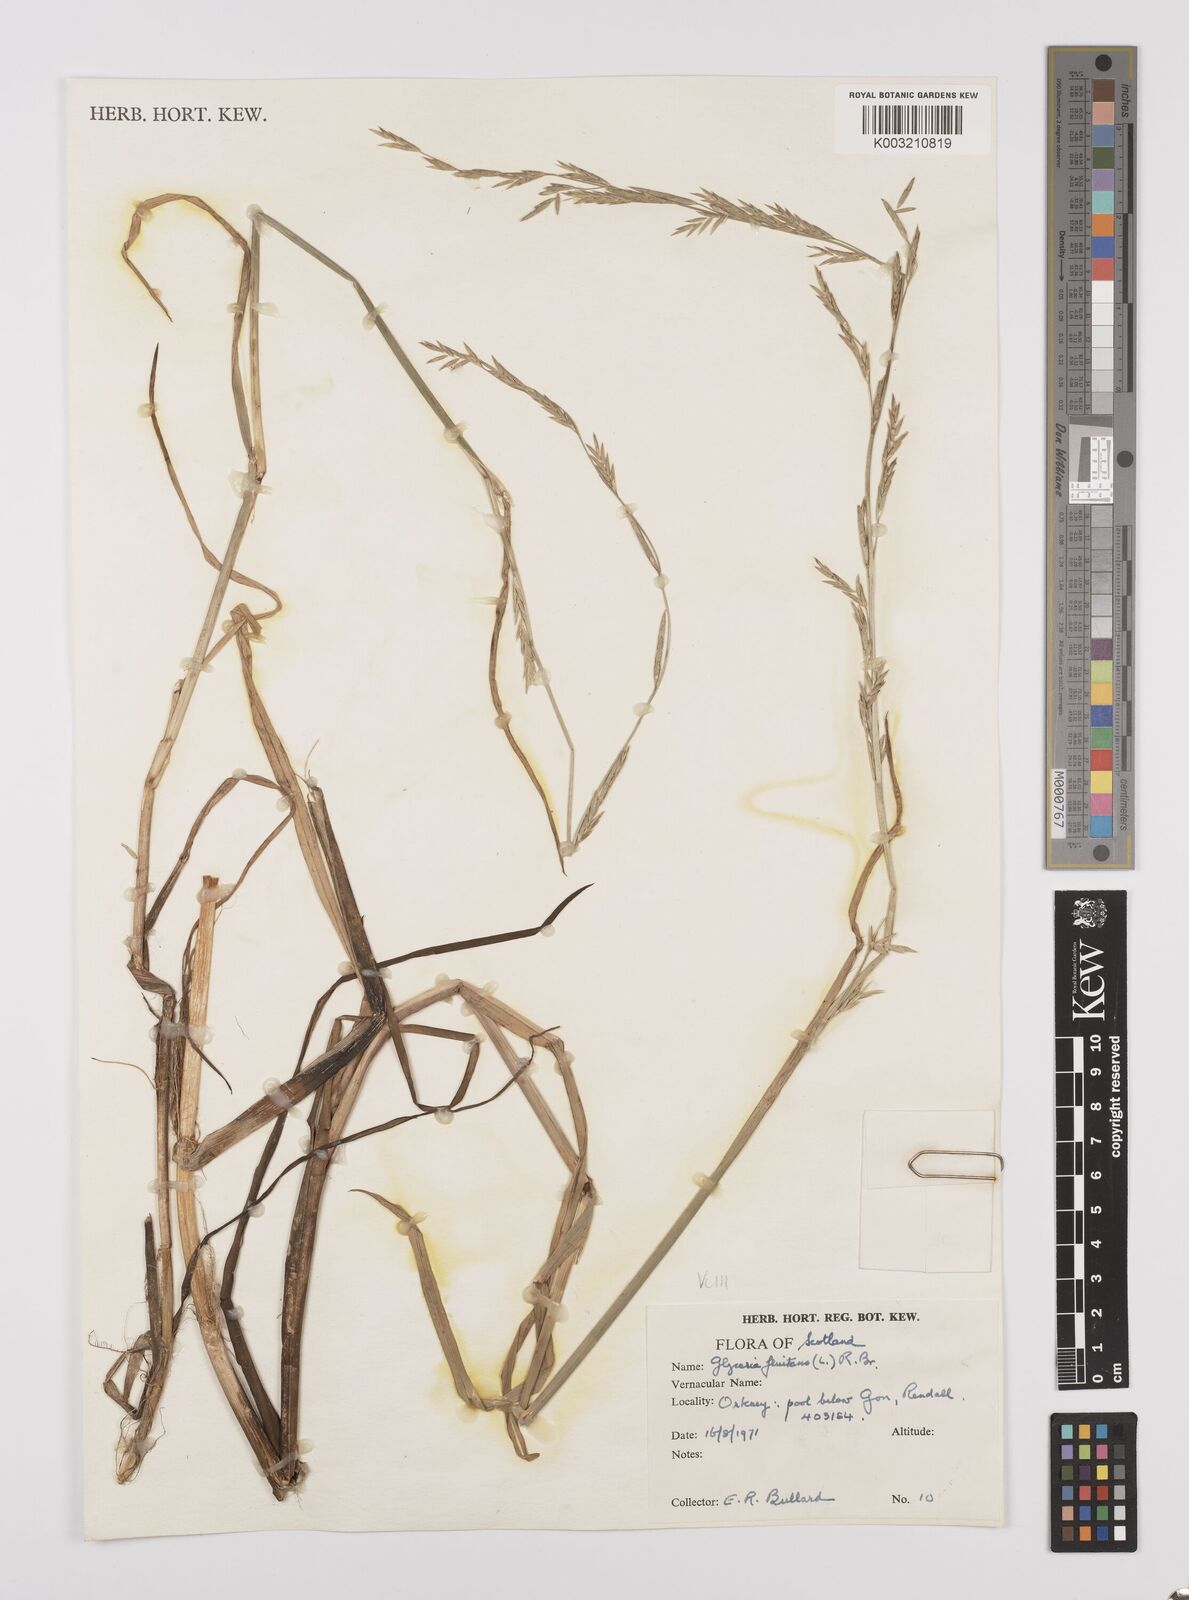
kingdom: Plantae
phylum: Tracheophyta
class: Liliopsida
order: Poales
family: Poaceae
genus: Glyceria
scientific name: Glyceria fluitans
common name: Floating sweet-grass
